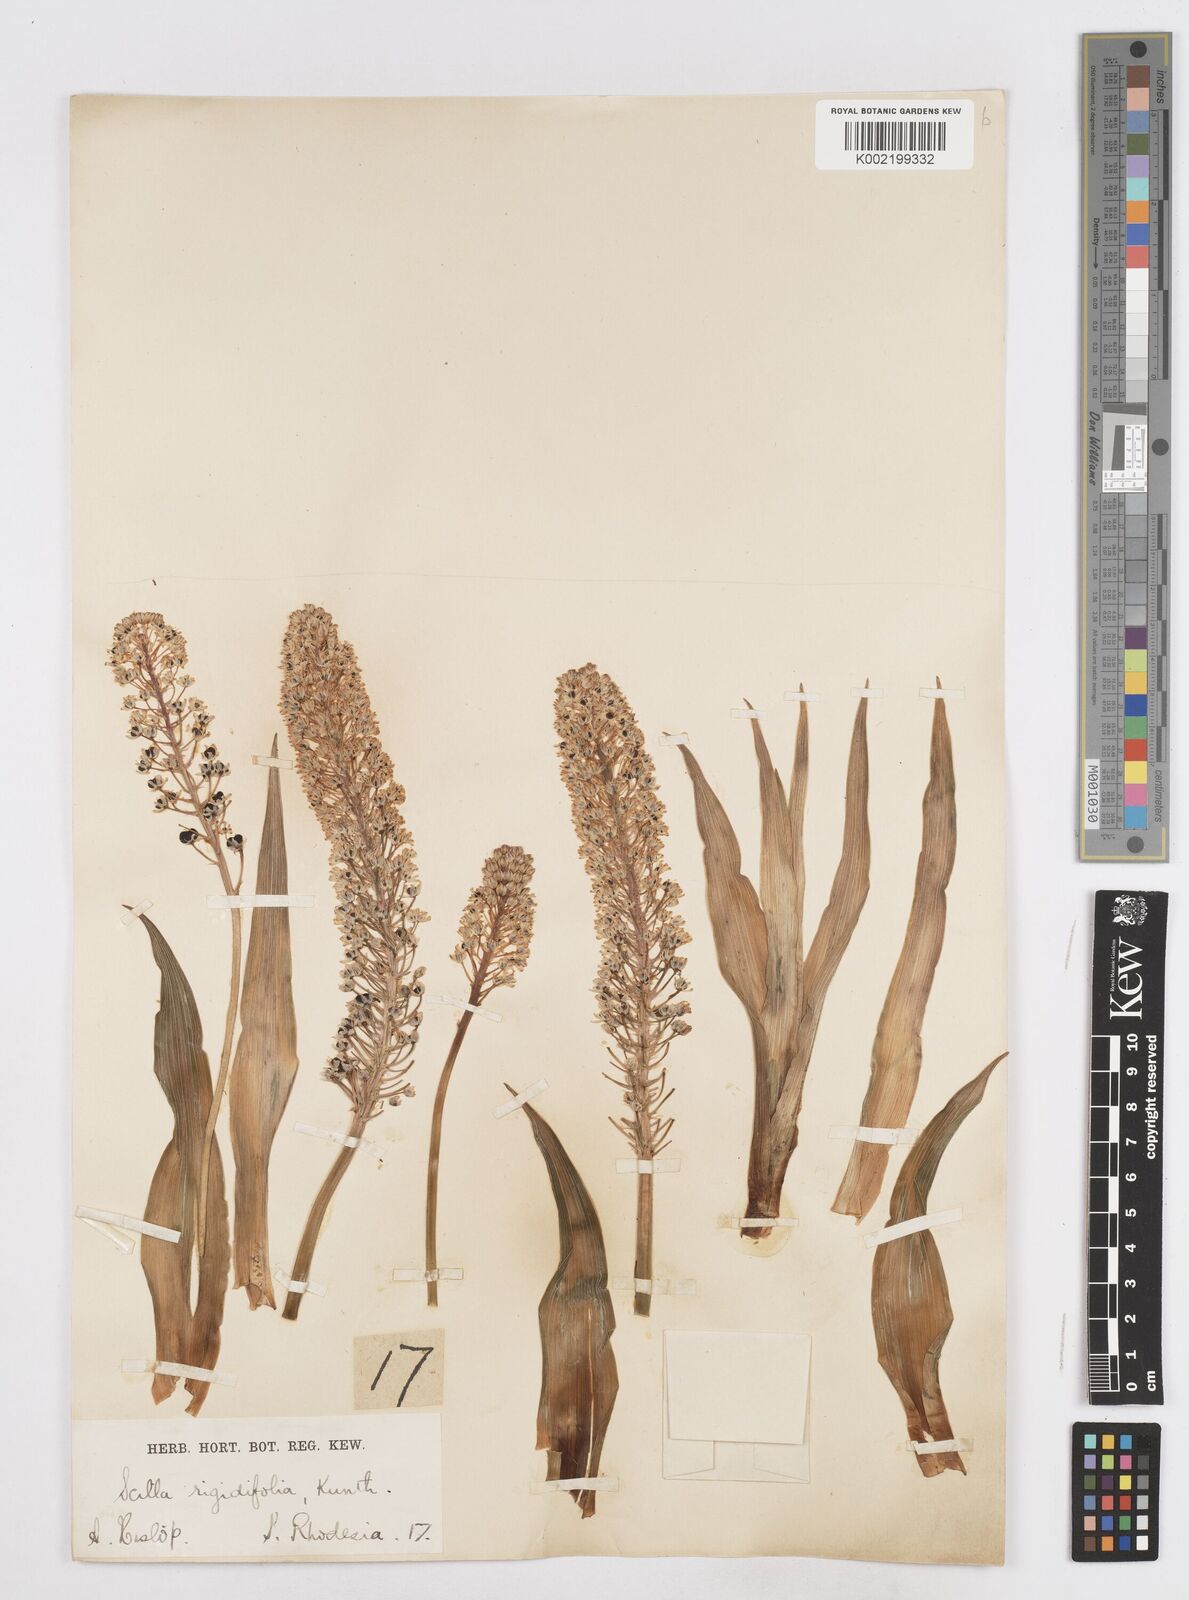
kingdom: Plantae
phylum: Tracheophyta
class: Liliopsida
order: Asparagales
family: Asparagaceae
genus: Schizocarphus
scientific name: Schizocarphus nervosus
